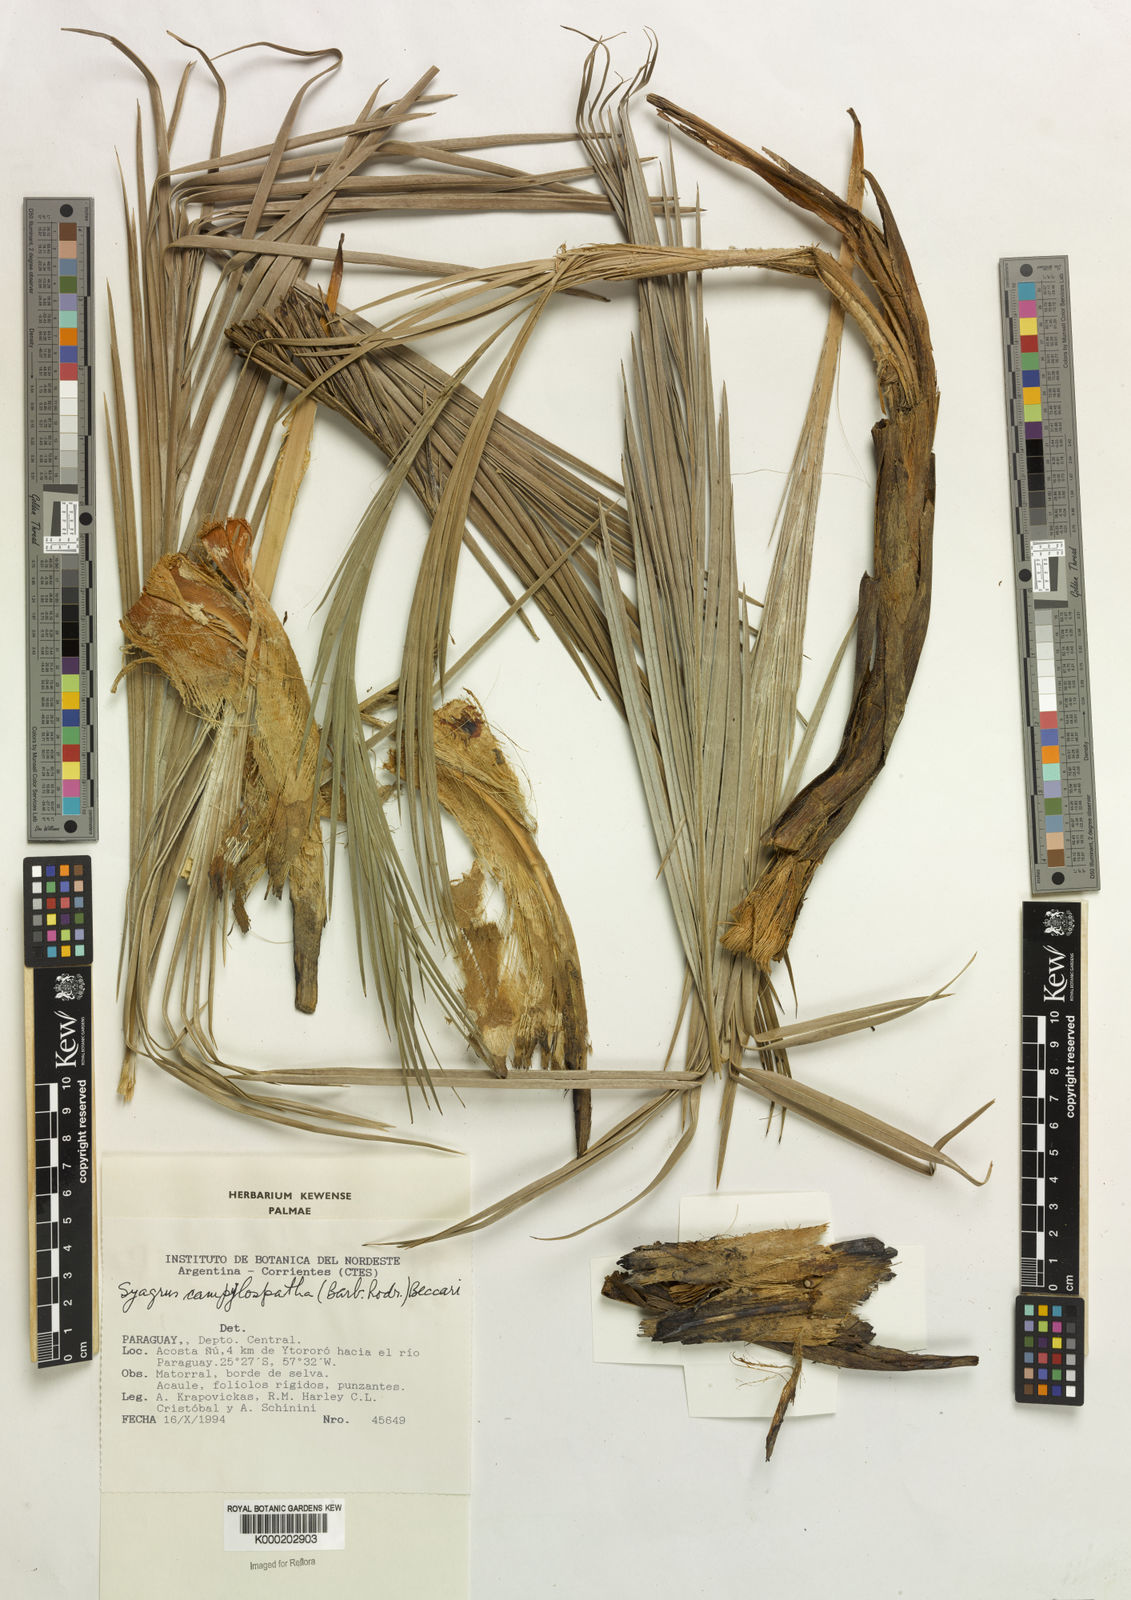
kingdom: Plantae
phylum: Tracheophyta
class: Liliopsida
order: Arecales
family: Arecaceae
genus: Syagrus
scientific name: Syagrus campylospatha
